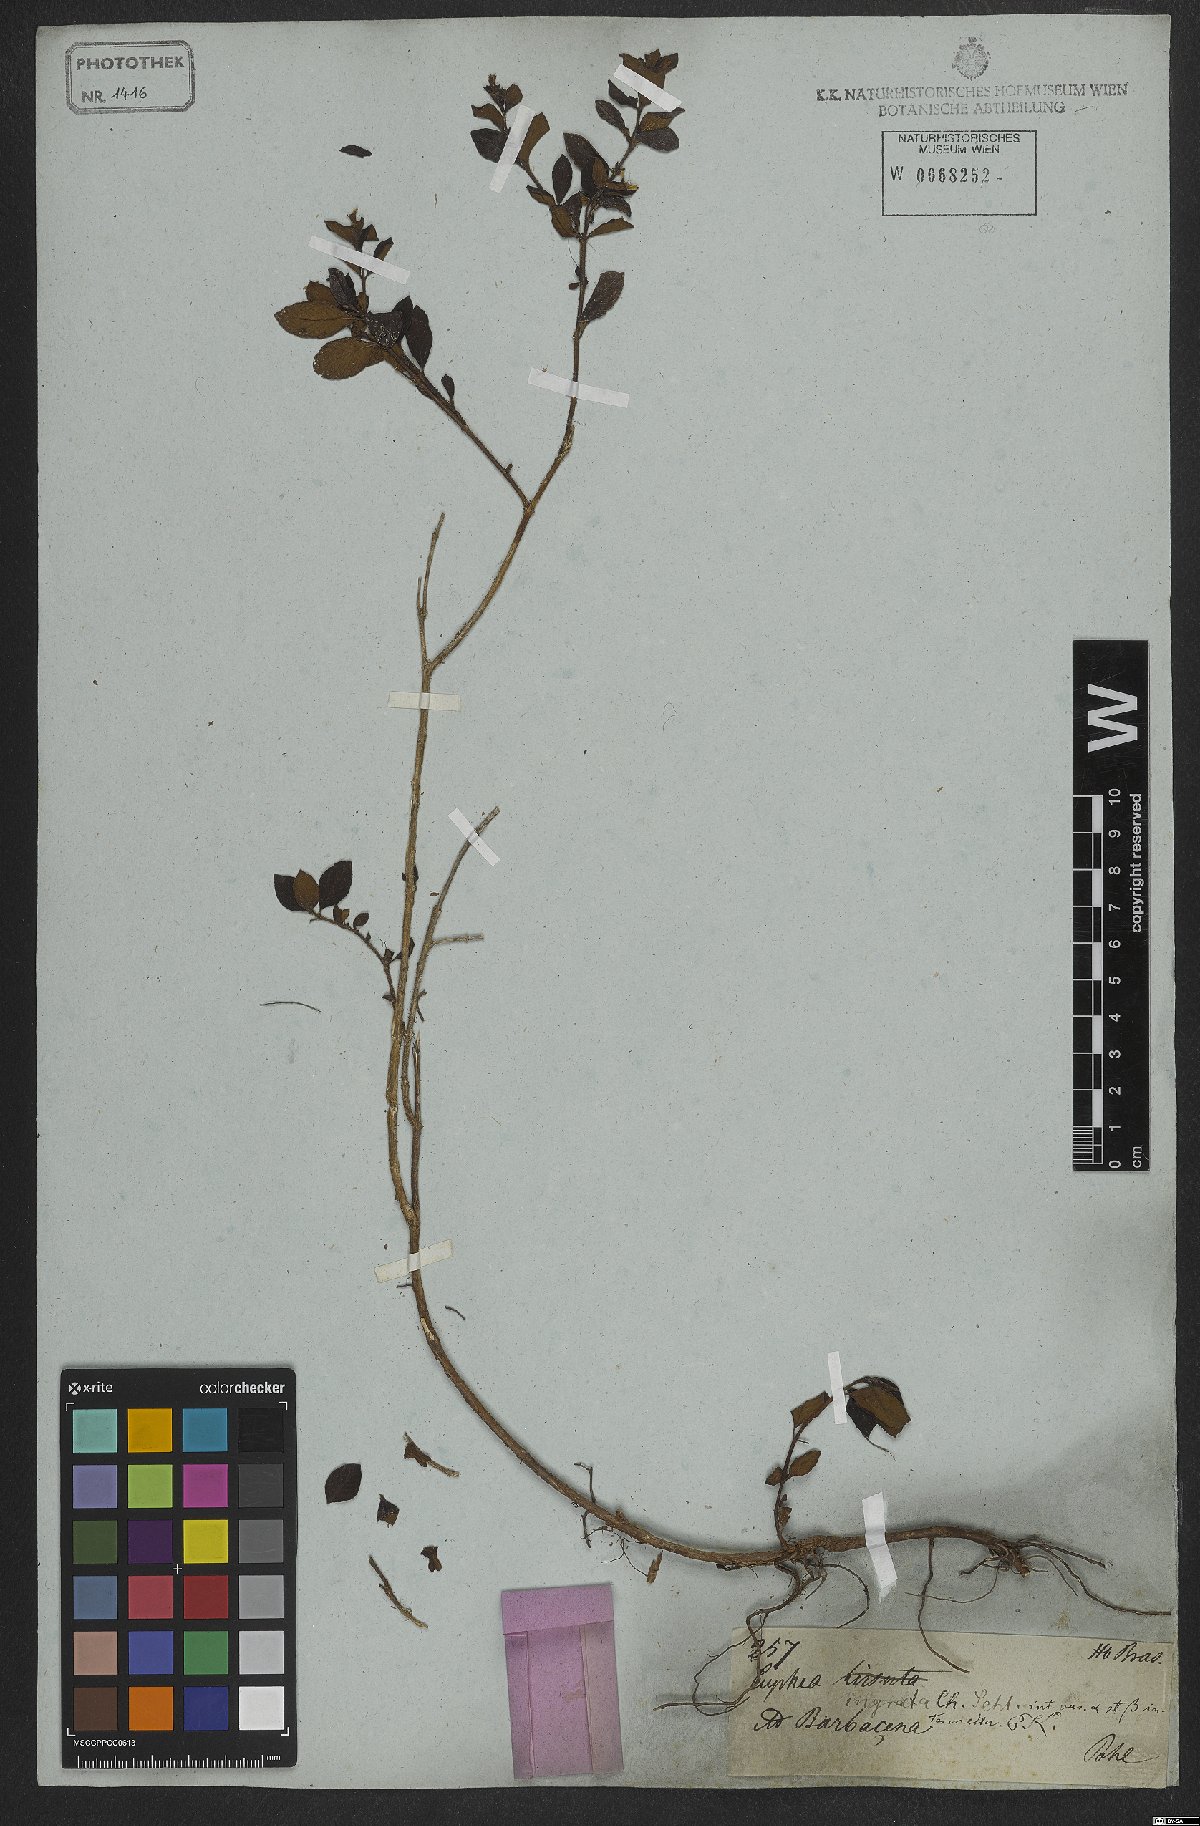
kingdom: Plantae
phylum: Tracheophyta
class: Magnoliopsida
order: Myrtales
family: Lythraceae
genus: Cuphea
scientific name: Cuphea ingrata
